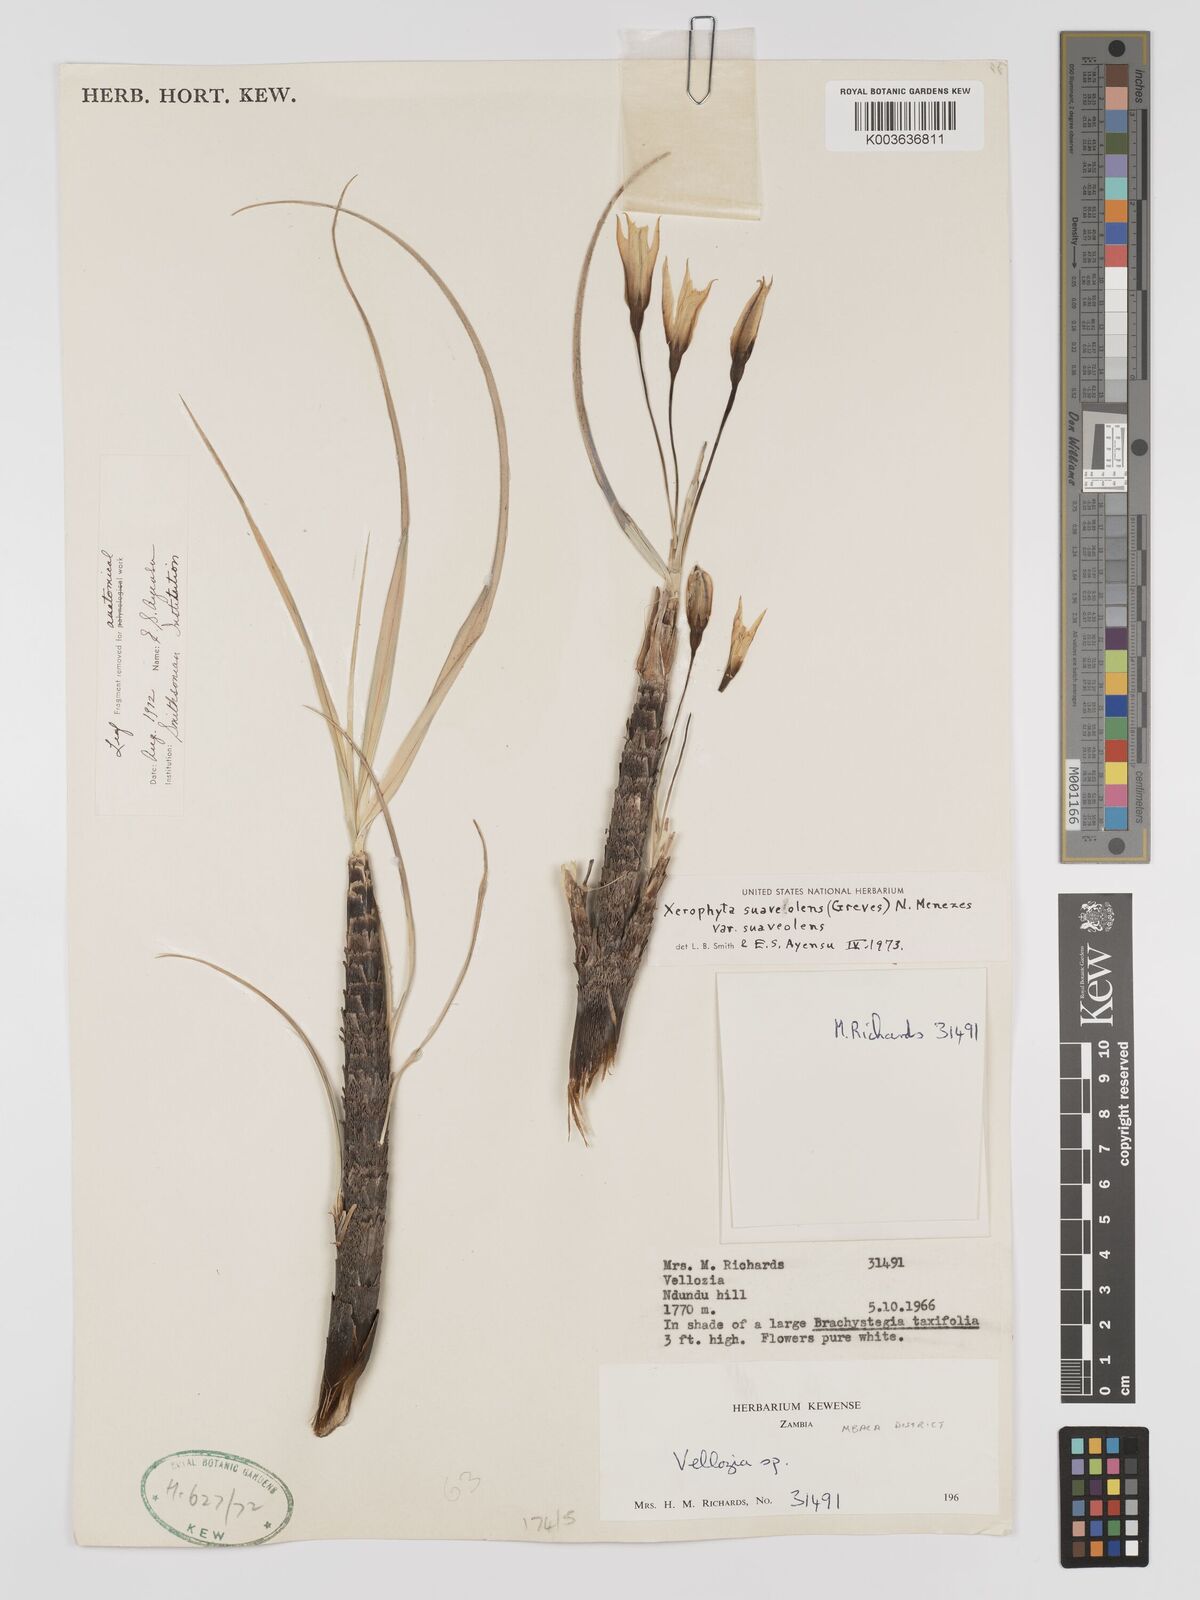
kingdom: Plantae
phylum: Tracheophyta
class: Liliopsida
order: Pandanales
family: Velloziaceae
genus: Xerophyta
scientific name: Xerophyta suaveolens
